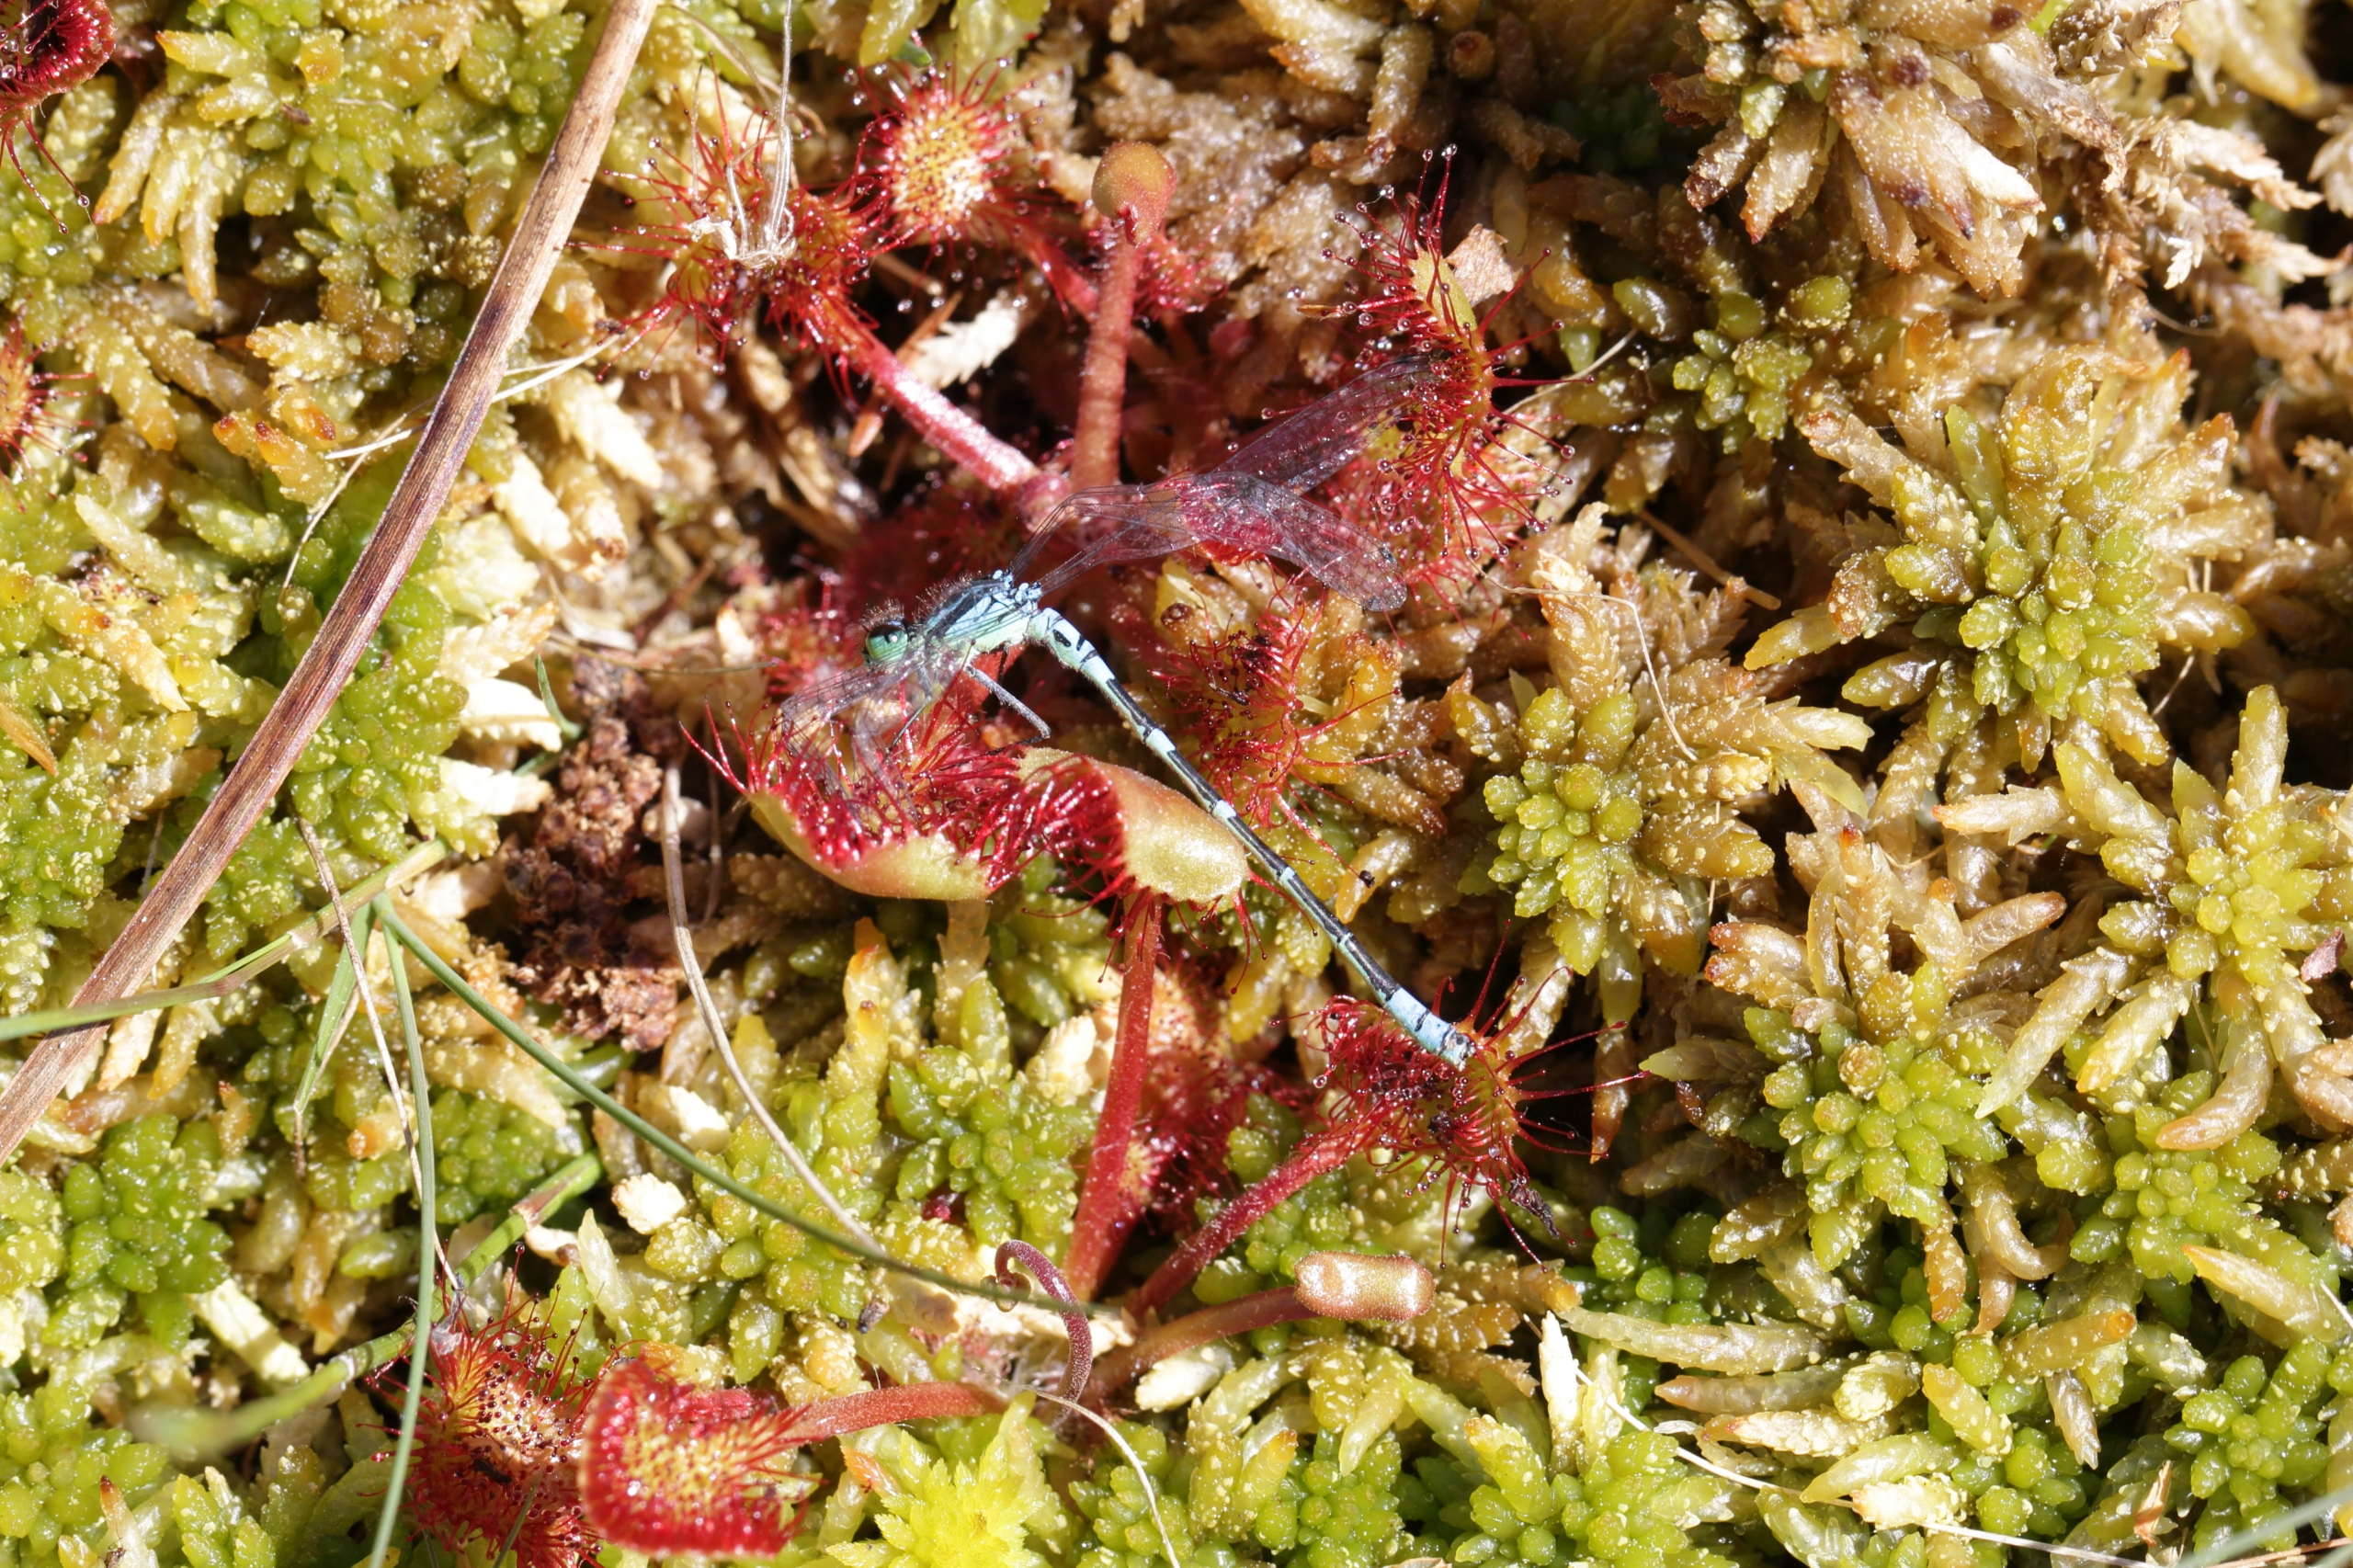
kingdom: Plantae
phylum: Tracheophyta
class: Magnoliopsida
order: Caryophyllales
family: Droseraceae
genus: Drosera
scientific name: Drosera rotundifolia
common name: Rundbladet soldug
